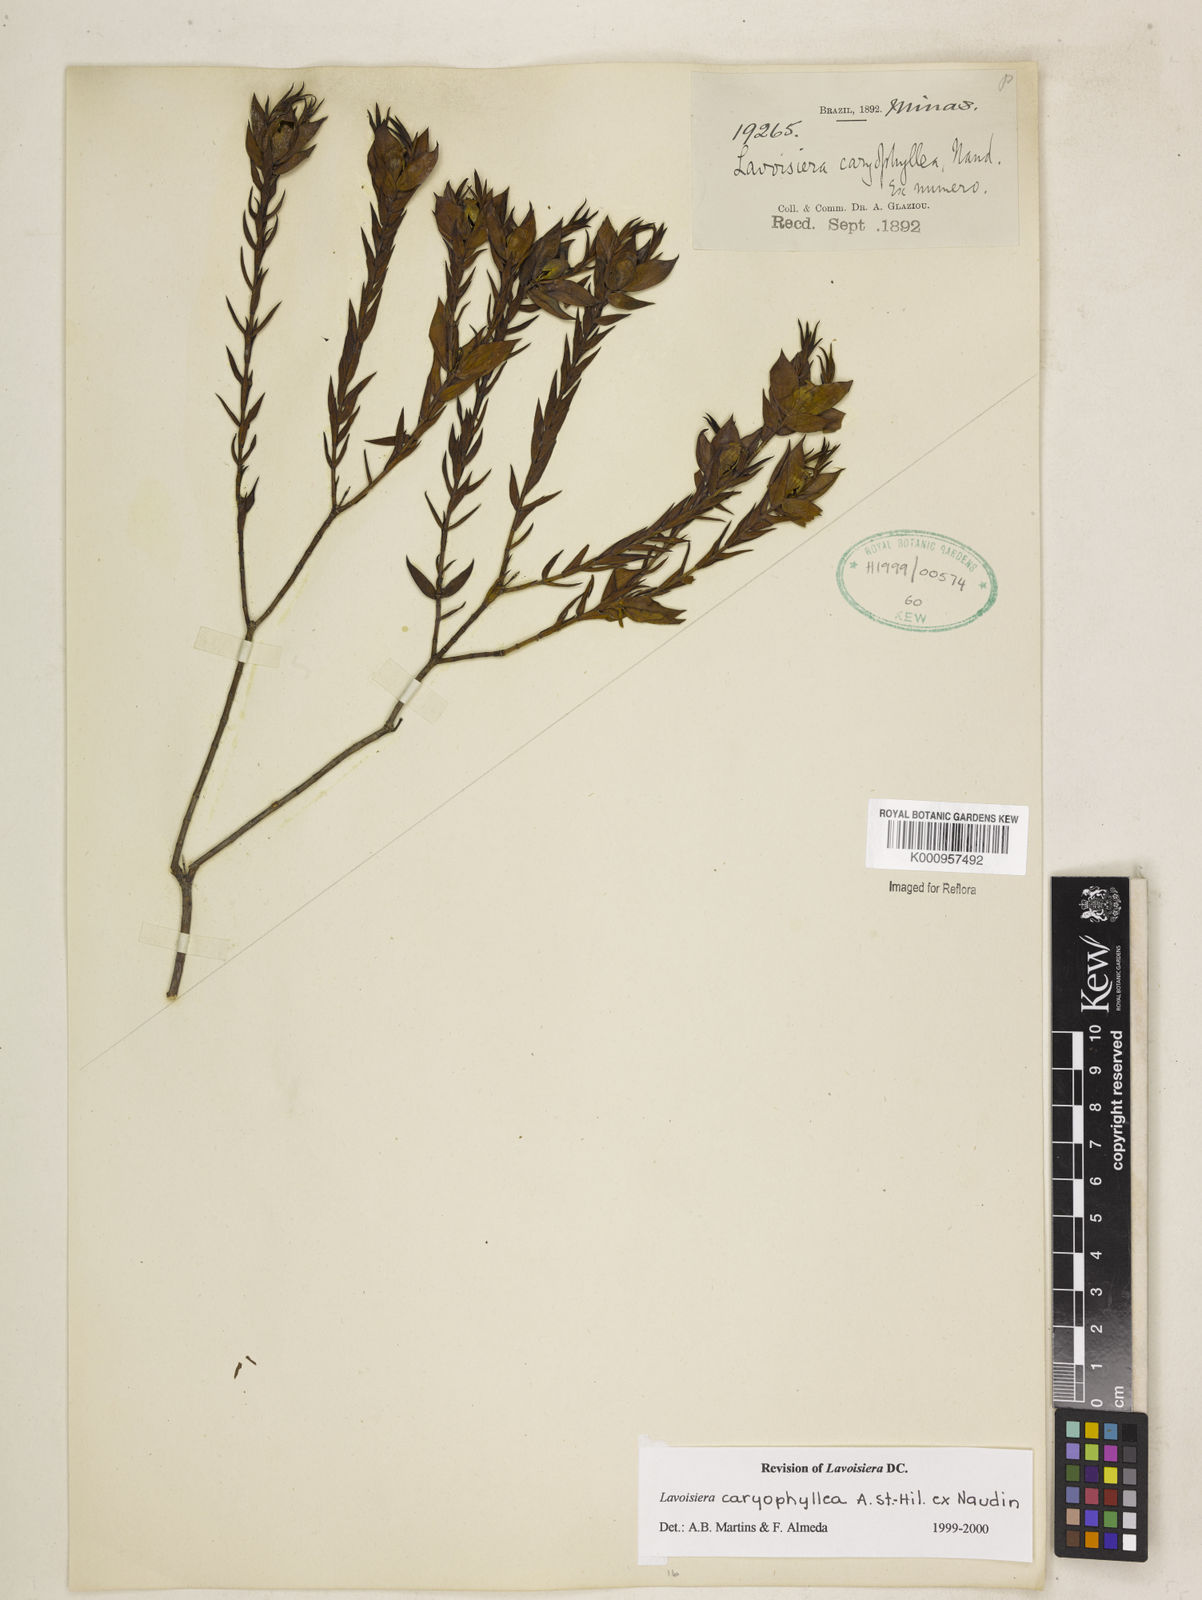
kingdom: Plantae
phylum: Tracheophyta
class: Magnoliopsida
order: Myrtales
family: Melastomataceae
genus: Microlicia
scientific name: Microlicia caryophyllea
